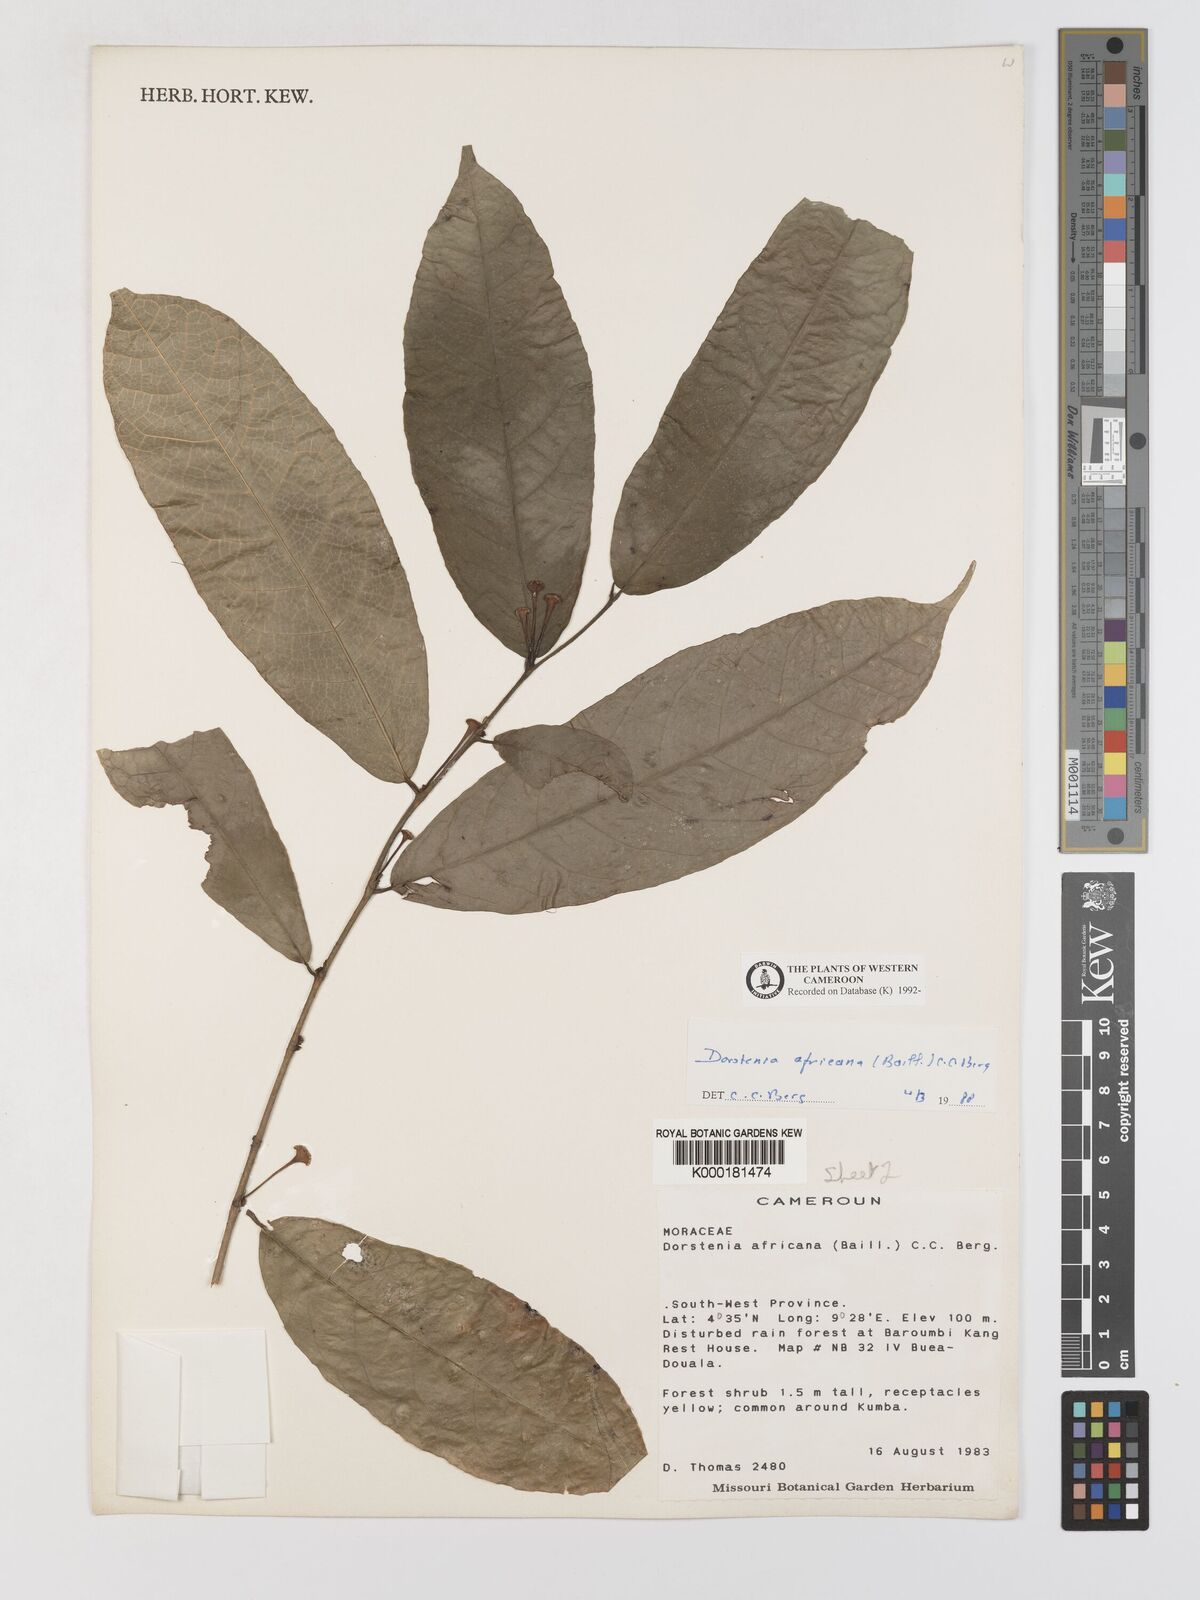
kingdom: Plantae
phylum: Tracheophyta
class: Magnoliopsida
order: Rosales
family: Moraceae
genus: Dorstenia
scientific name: Dorstenia africana
